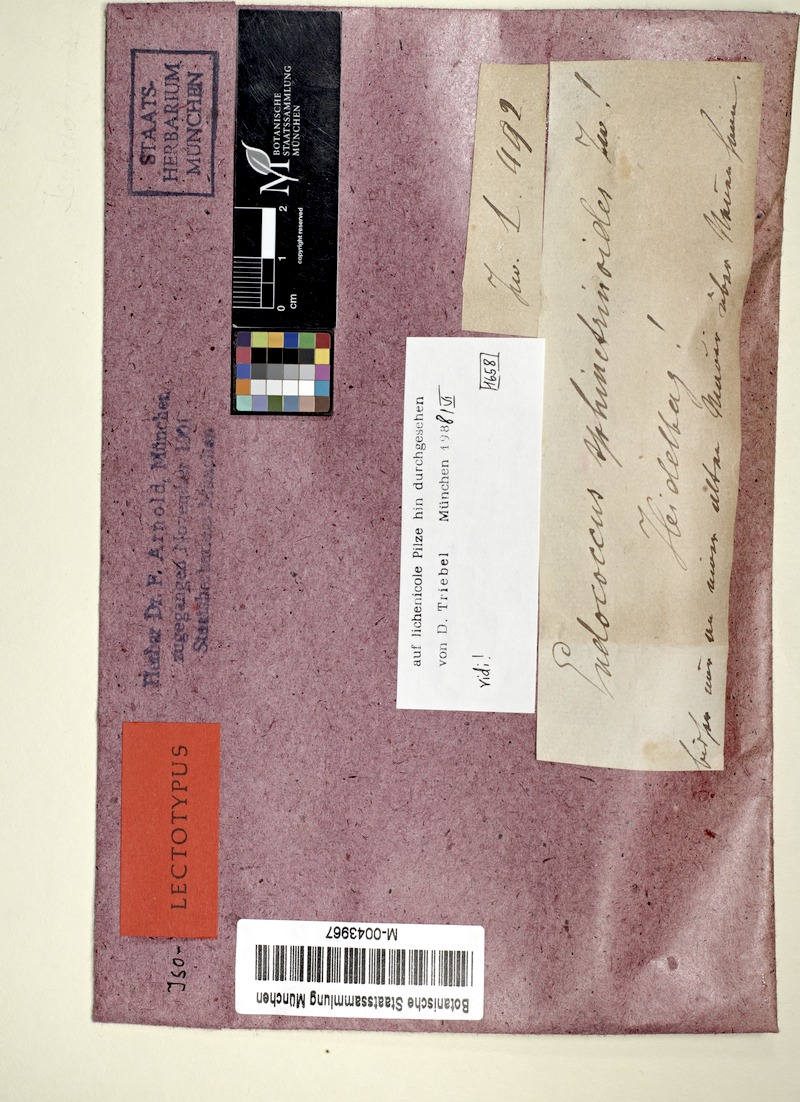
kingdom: Fungi
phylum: Ascomycota
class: Lecanoromycetes
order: Lecanorales
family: Lecanoraceae
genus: Lecanora
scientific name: Lecanora
